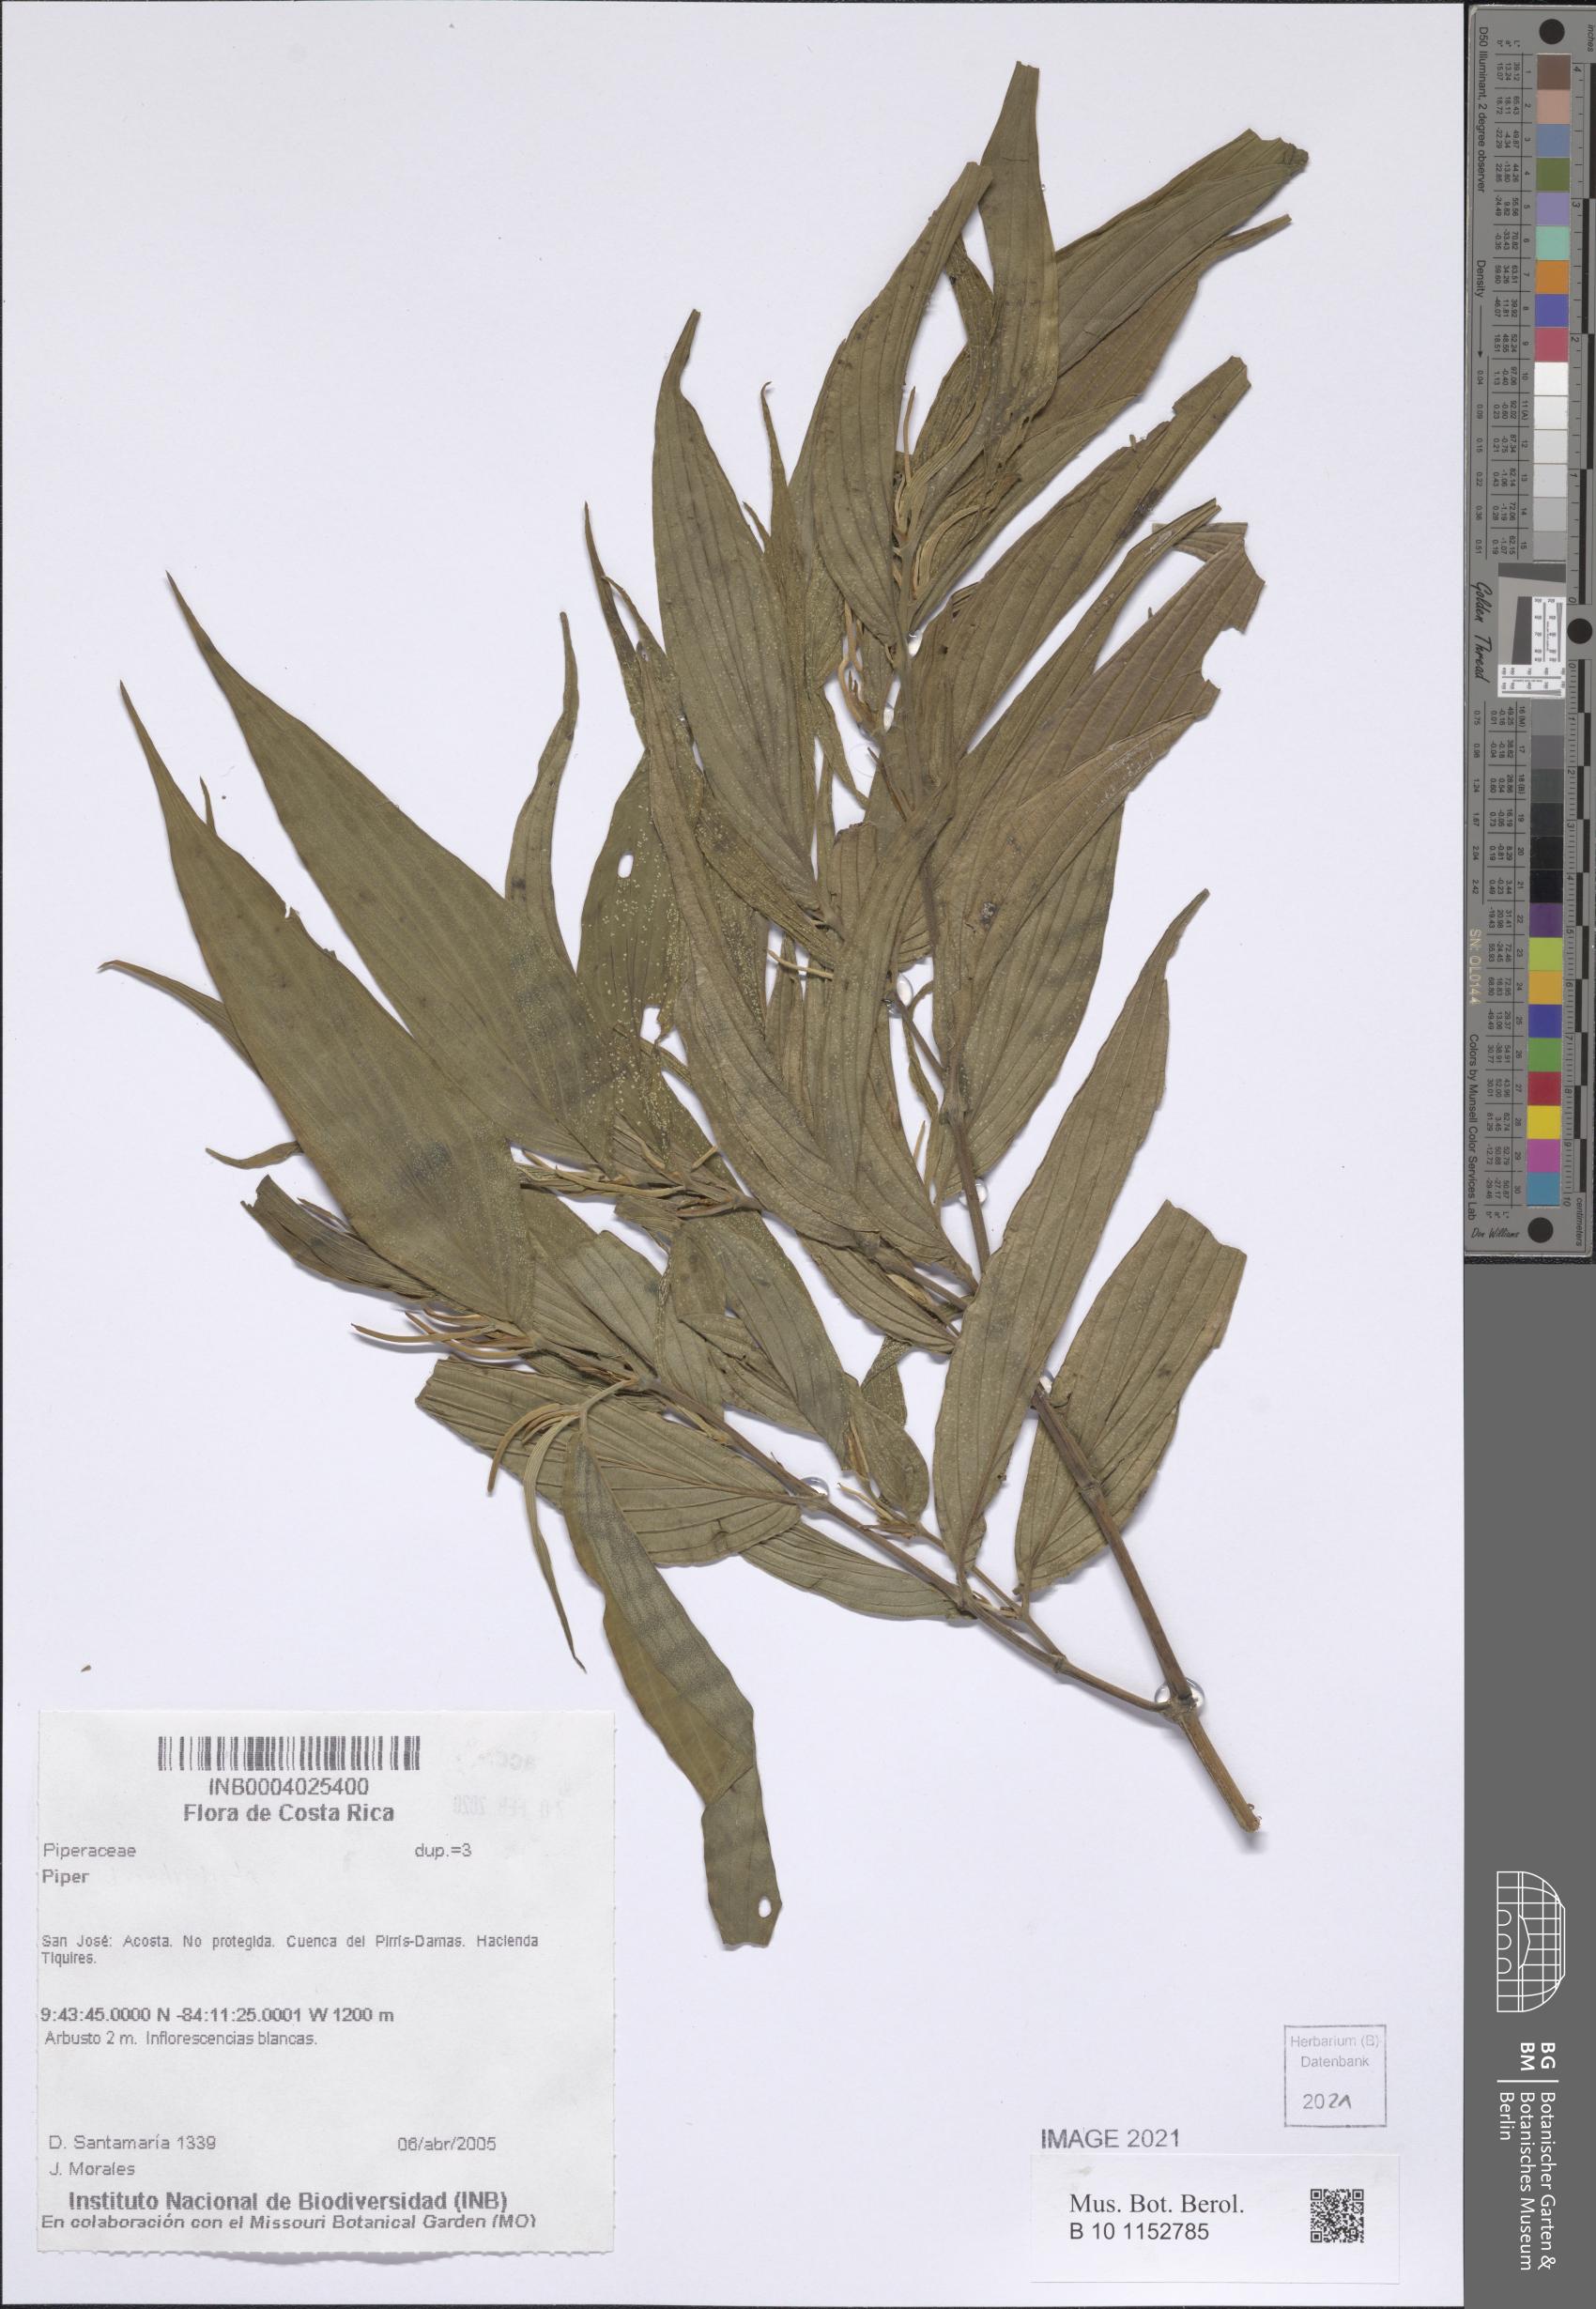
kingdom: Plantae
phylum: Tracheophyta
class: Magnoliopsida
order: Piperales
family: Piperaceae
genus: Piper
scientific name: Piper
